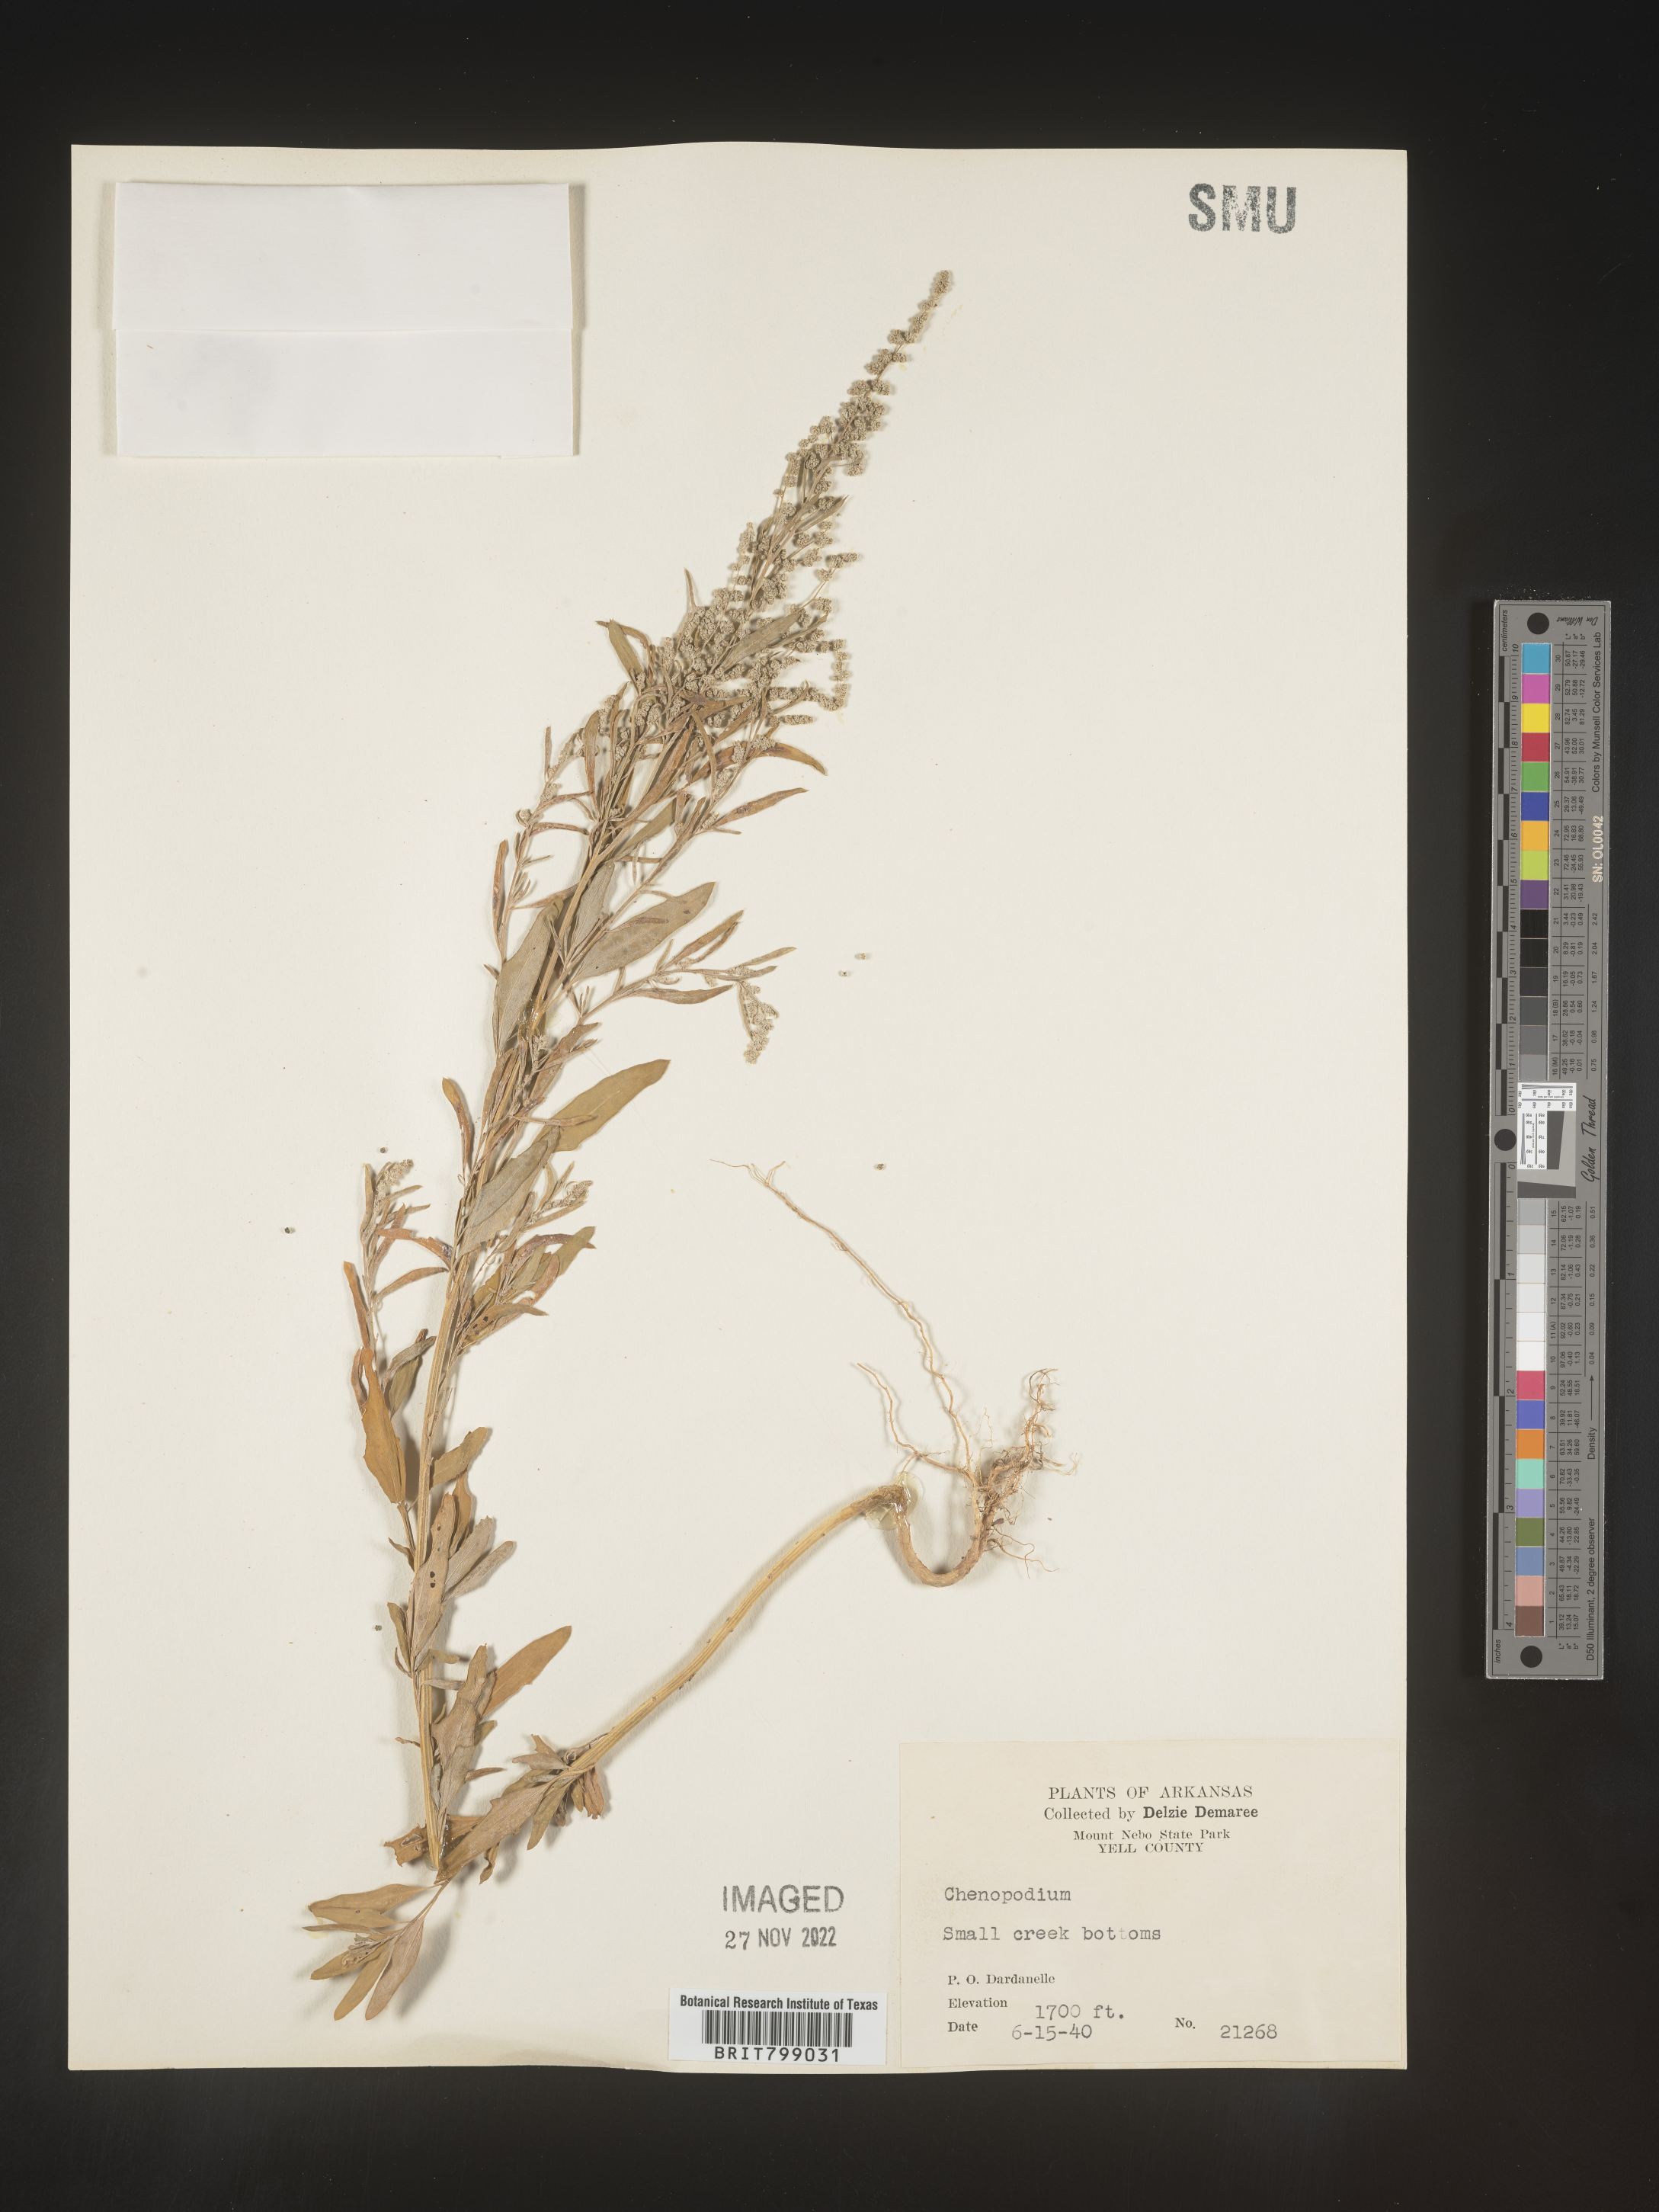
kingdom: Plantae
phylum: Tracheophyta
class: Magnoliopsida
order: Caryophyllales
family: Amaranthaceae
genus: Chenopodium
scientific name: Chenopodium
